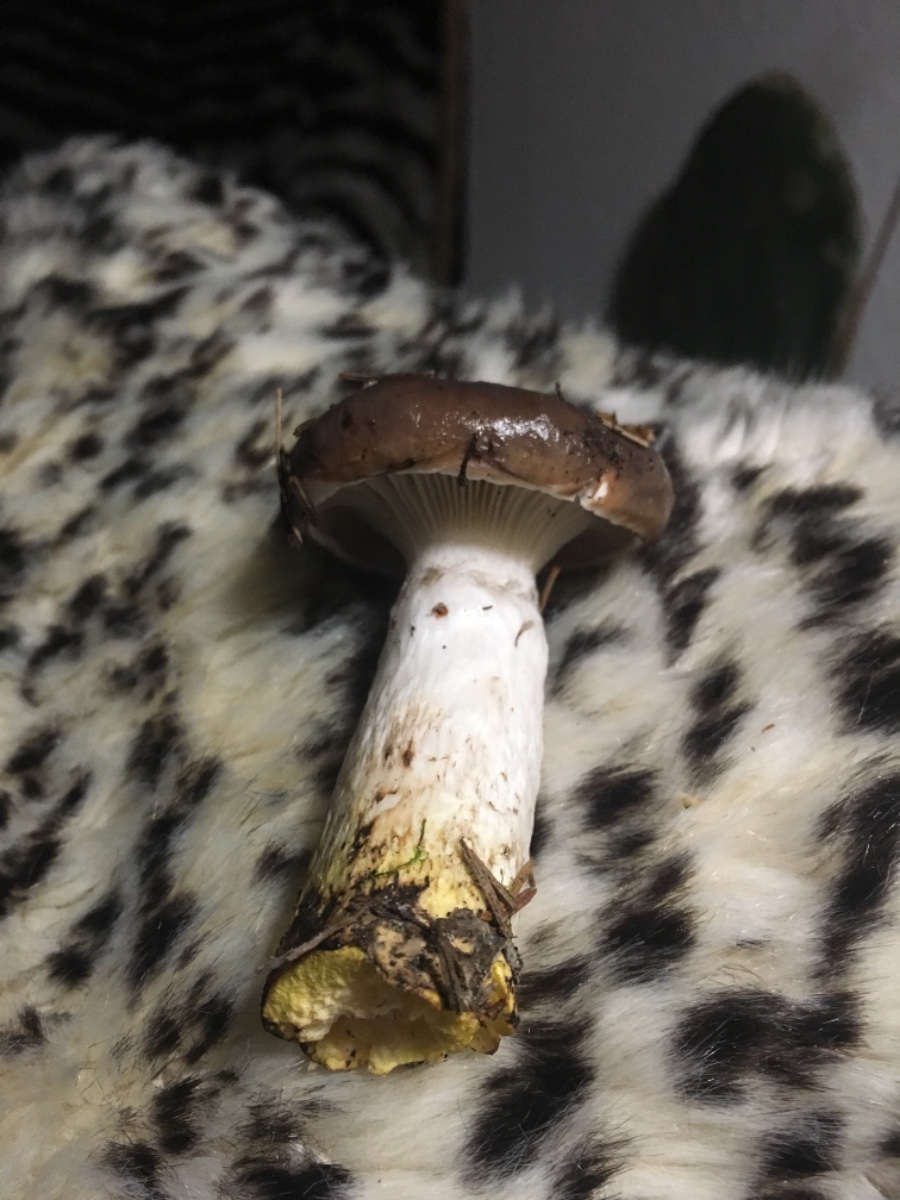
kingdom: Fungi
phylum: Basidiomycota
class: Agaricomycetes
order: Boletales
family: Gomphidiaceae
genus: Gomphidius
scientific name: Gomphidius glutinosus
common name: grå slimslør
